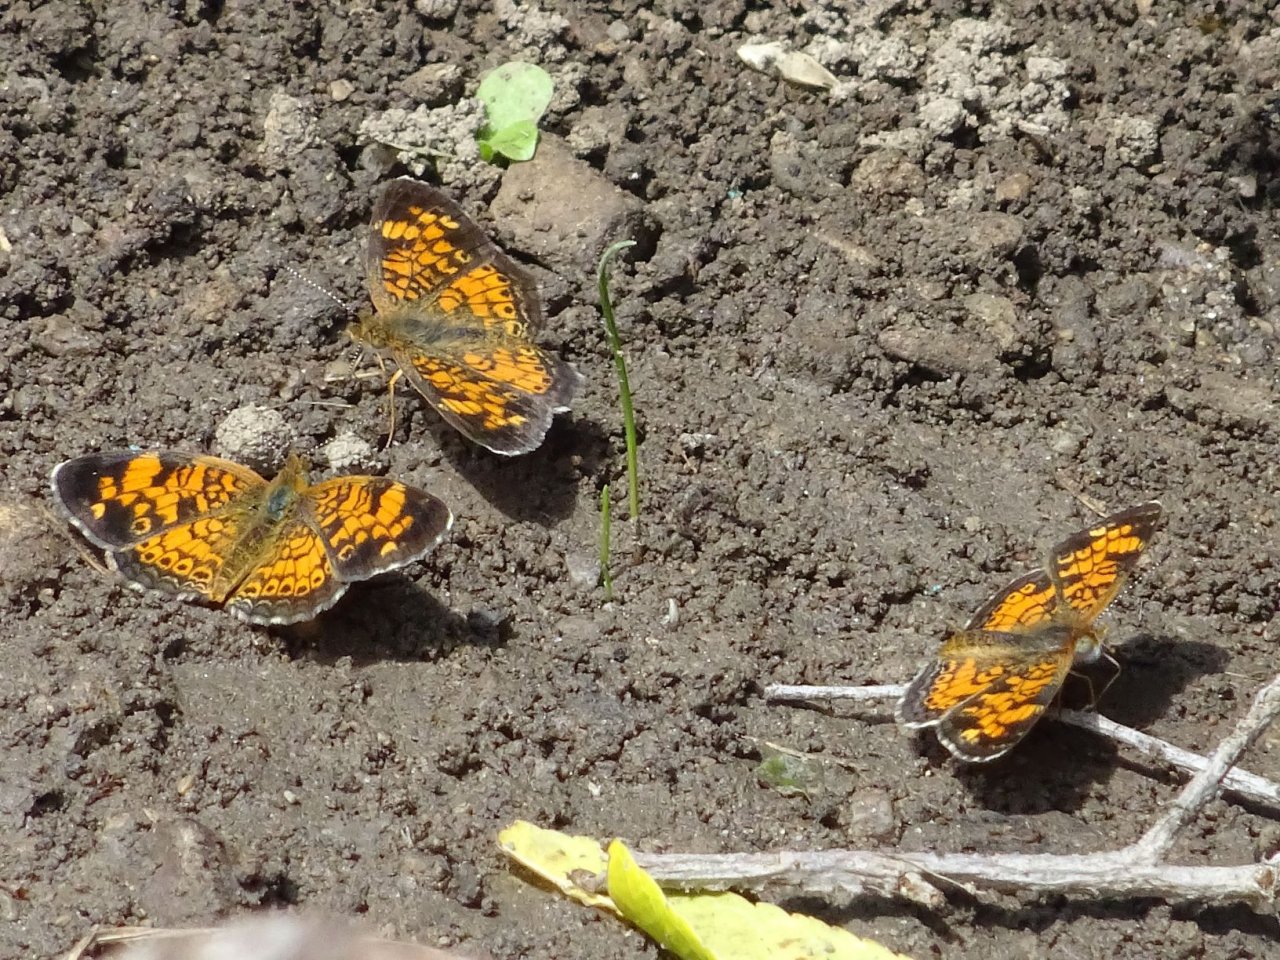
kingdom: Animalia
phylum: Arthropoda
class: Insecta
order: Lepidoptera
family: Nymphalidae
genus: Phyciodes
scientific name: Phyciodes tharos
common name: Pearl Crescent
